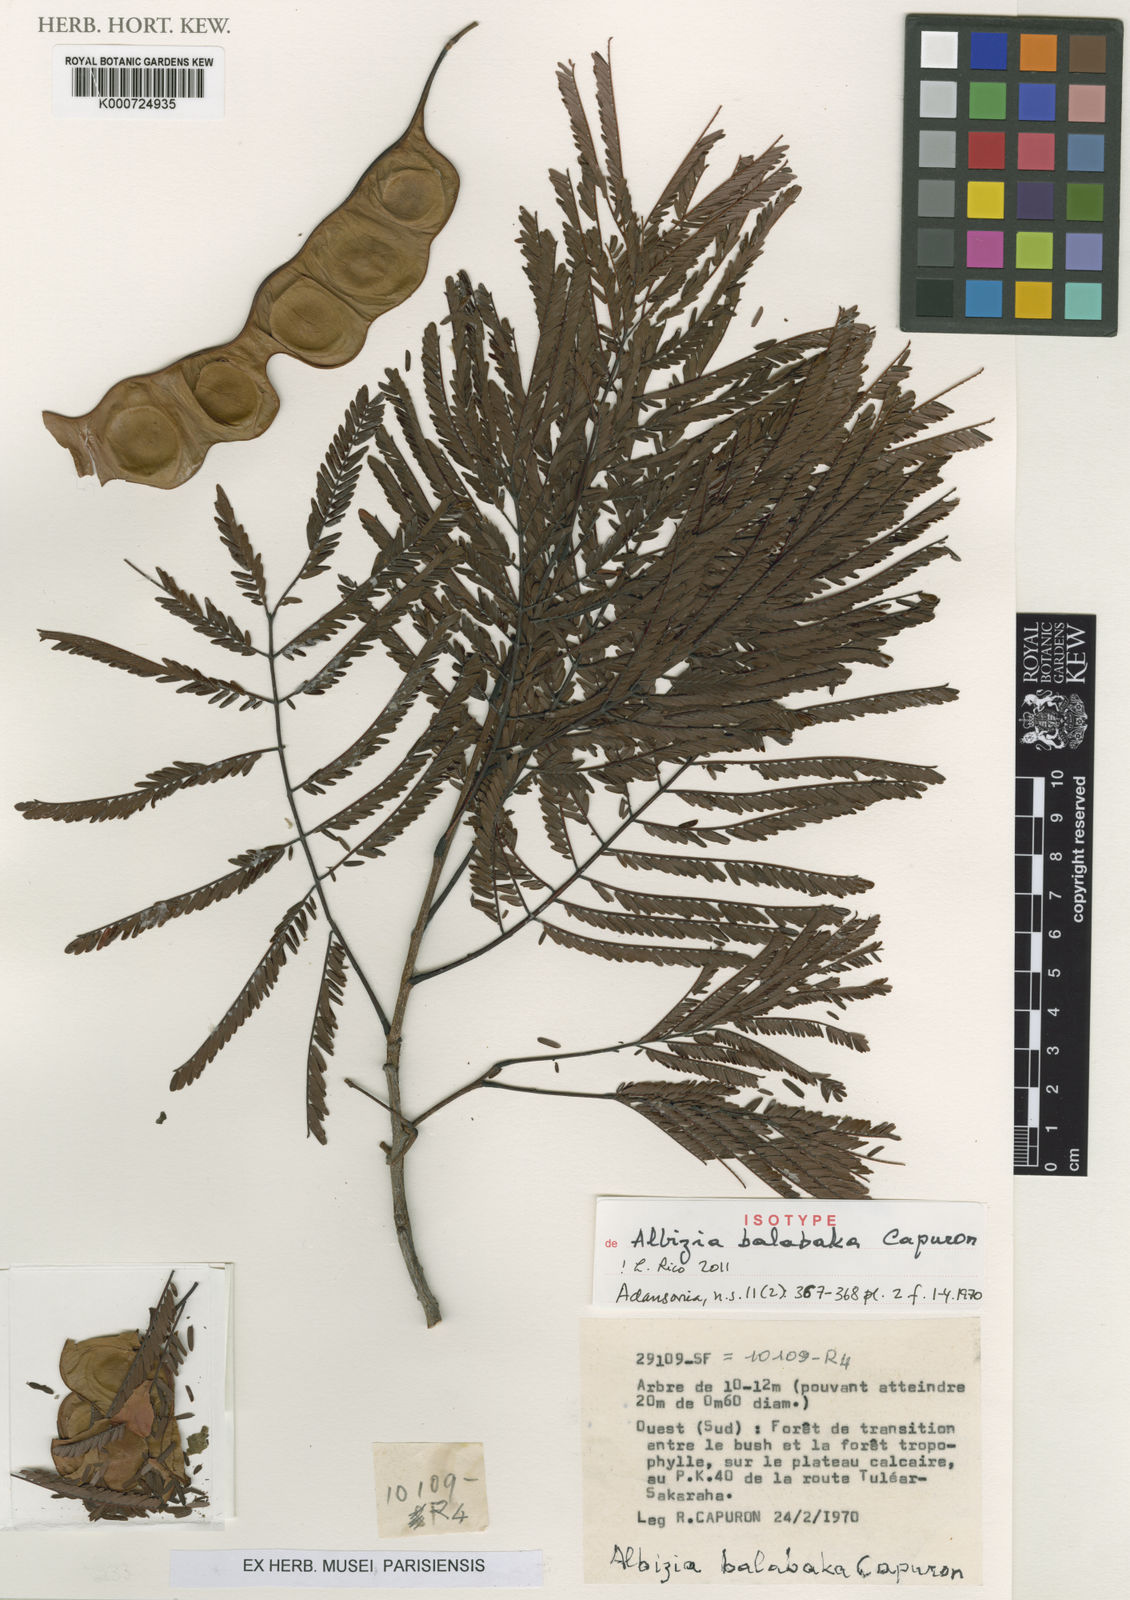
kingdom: Plantae
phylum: Tracheophyta
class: Magnoliopsida
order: Fabales
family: Fabaceae
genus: Albizia
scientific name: Albizia balabaka
